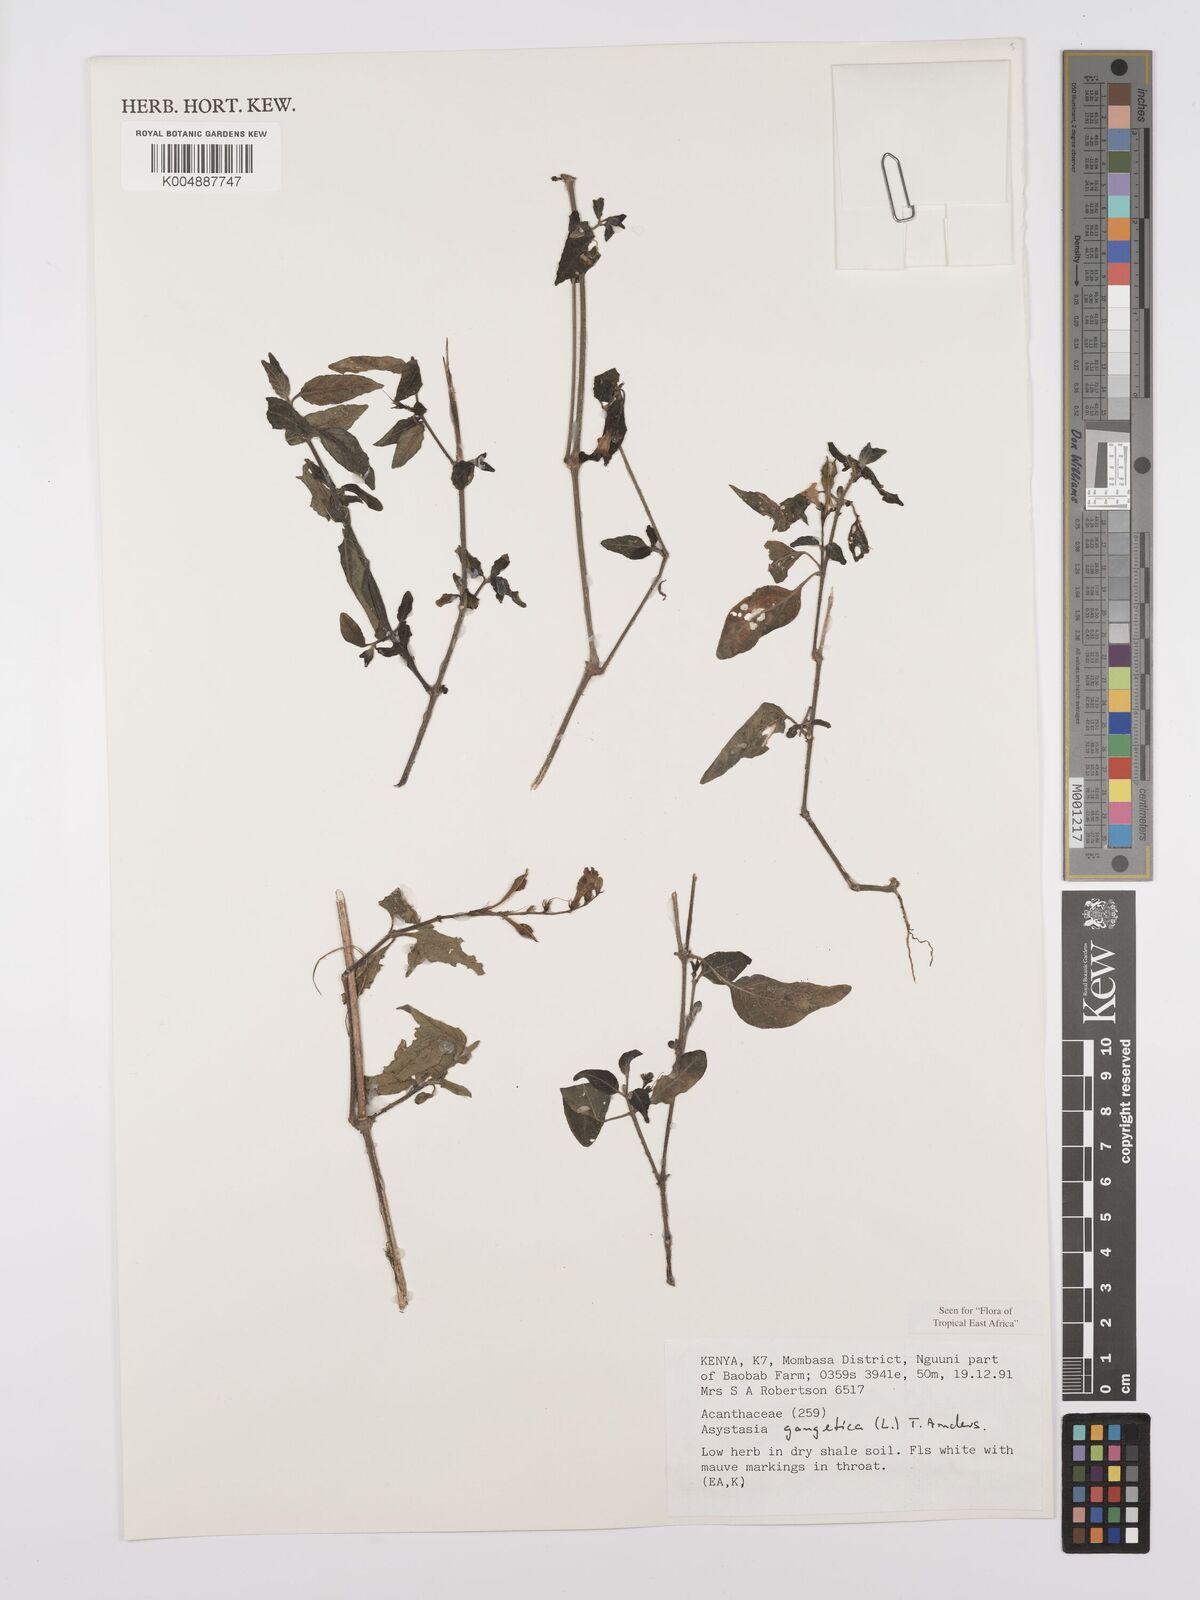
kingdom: Plantae
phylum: Tracheophyta
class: Magnoliopsida
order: Lamiales
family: Acanthaceae
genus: Asystasia
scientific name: Asystasia gangetica
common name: Chinese violet
